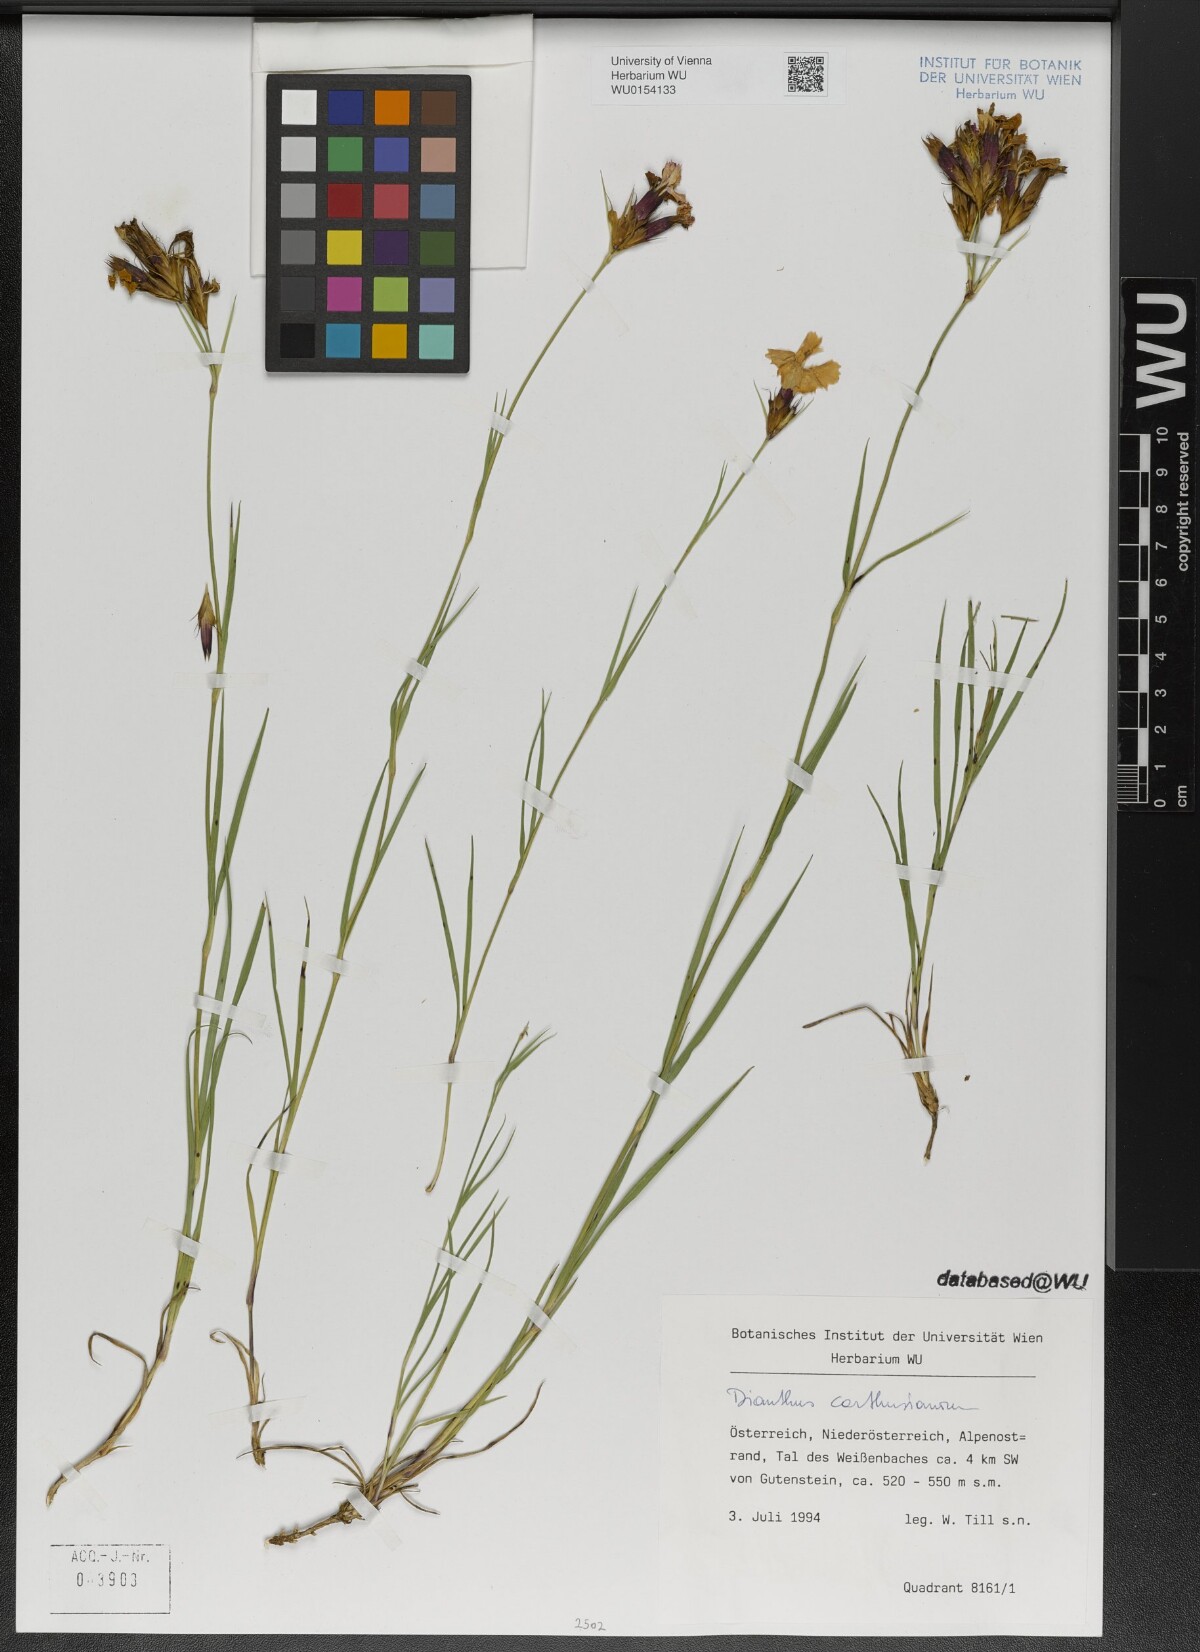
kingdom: Plantae
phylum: Tracheophyta
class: Magnoliopsida
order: Caryophyllales
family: Caryophyllaceae
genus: Dianthus
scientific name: Dianthus carthusianorum
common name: Carthusian pink
